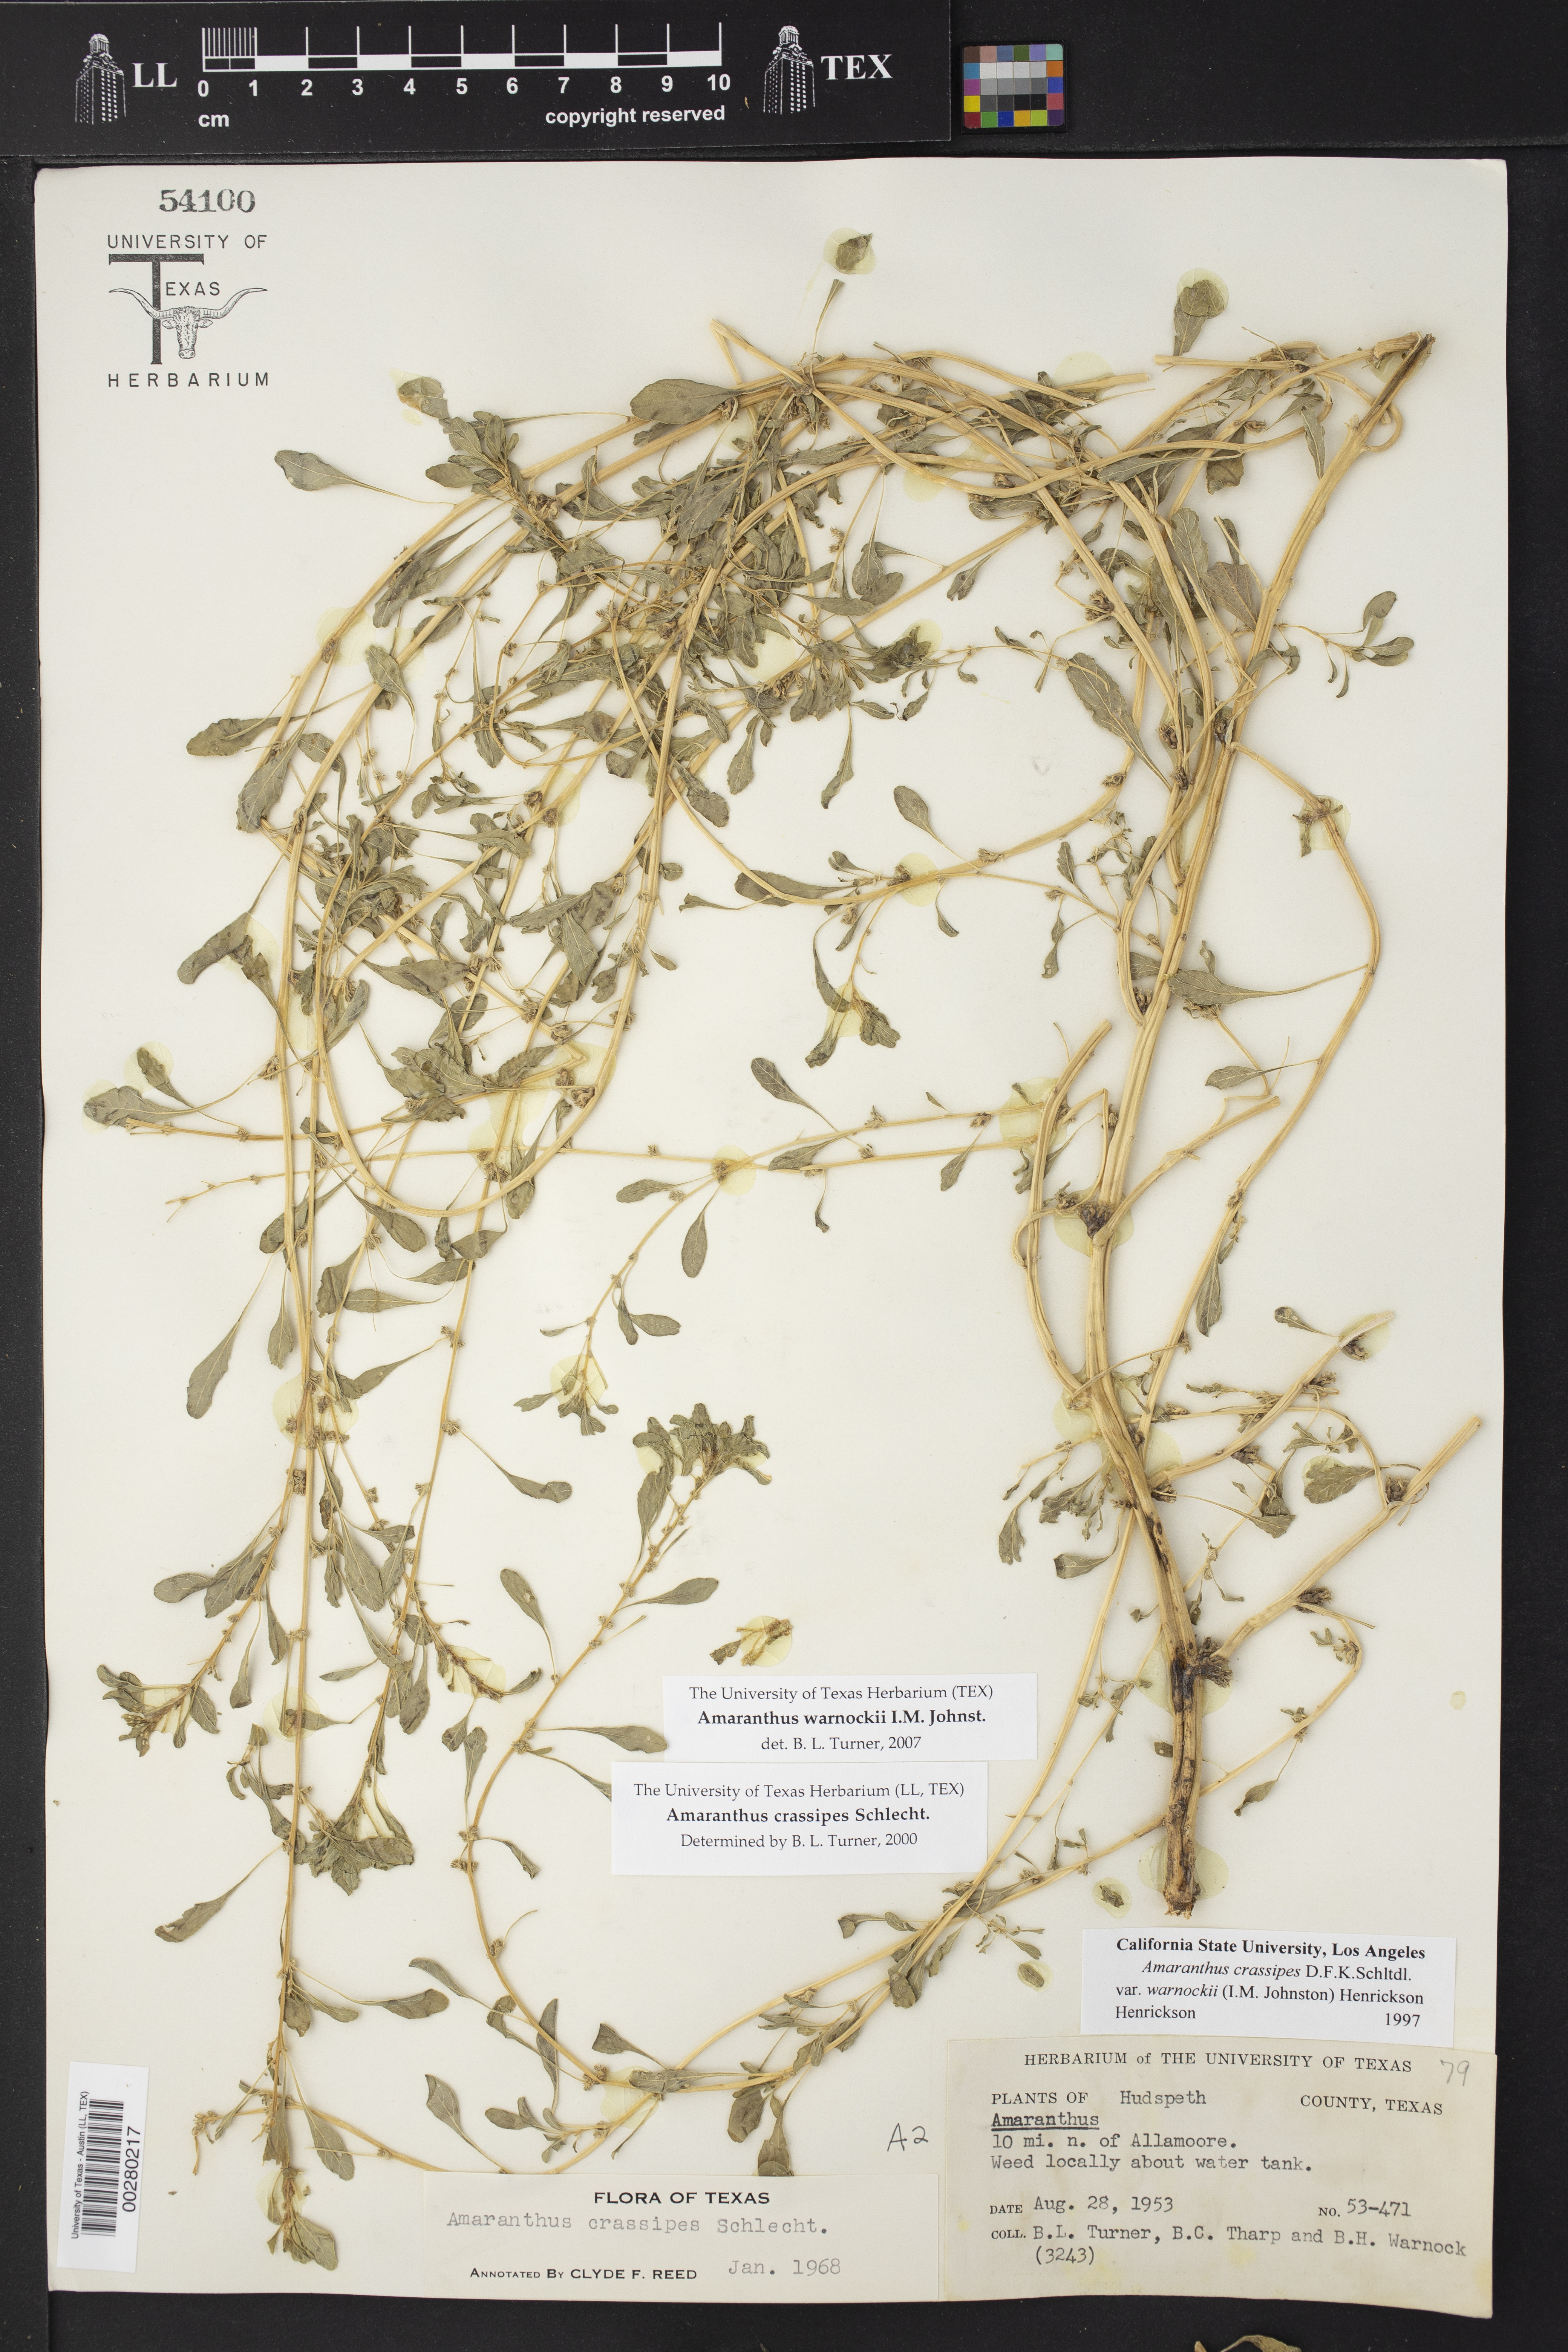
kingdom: Plantae
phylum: Tracheophyta
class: Magnoliopsida
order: Caryophyllales
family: Amaranthaceae
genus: Amaranthus
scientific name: Amaranthus crassipes
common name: Spreading amaranth
